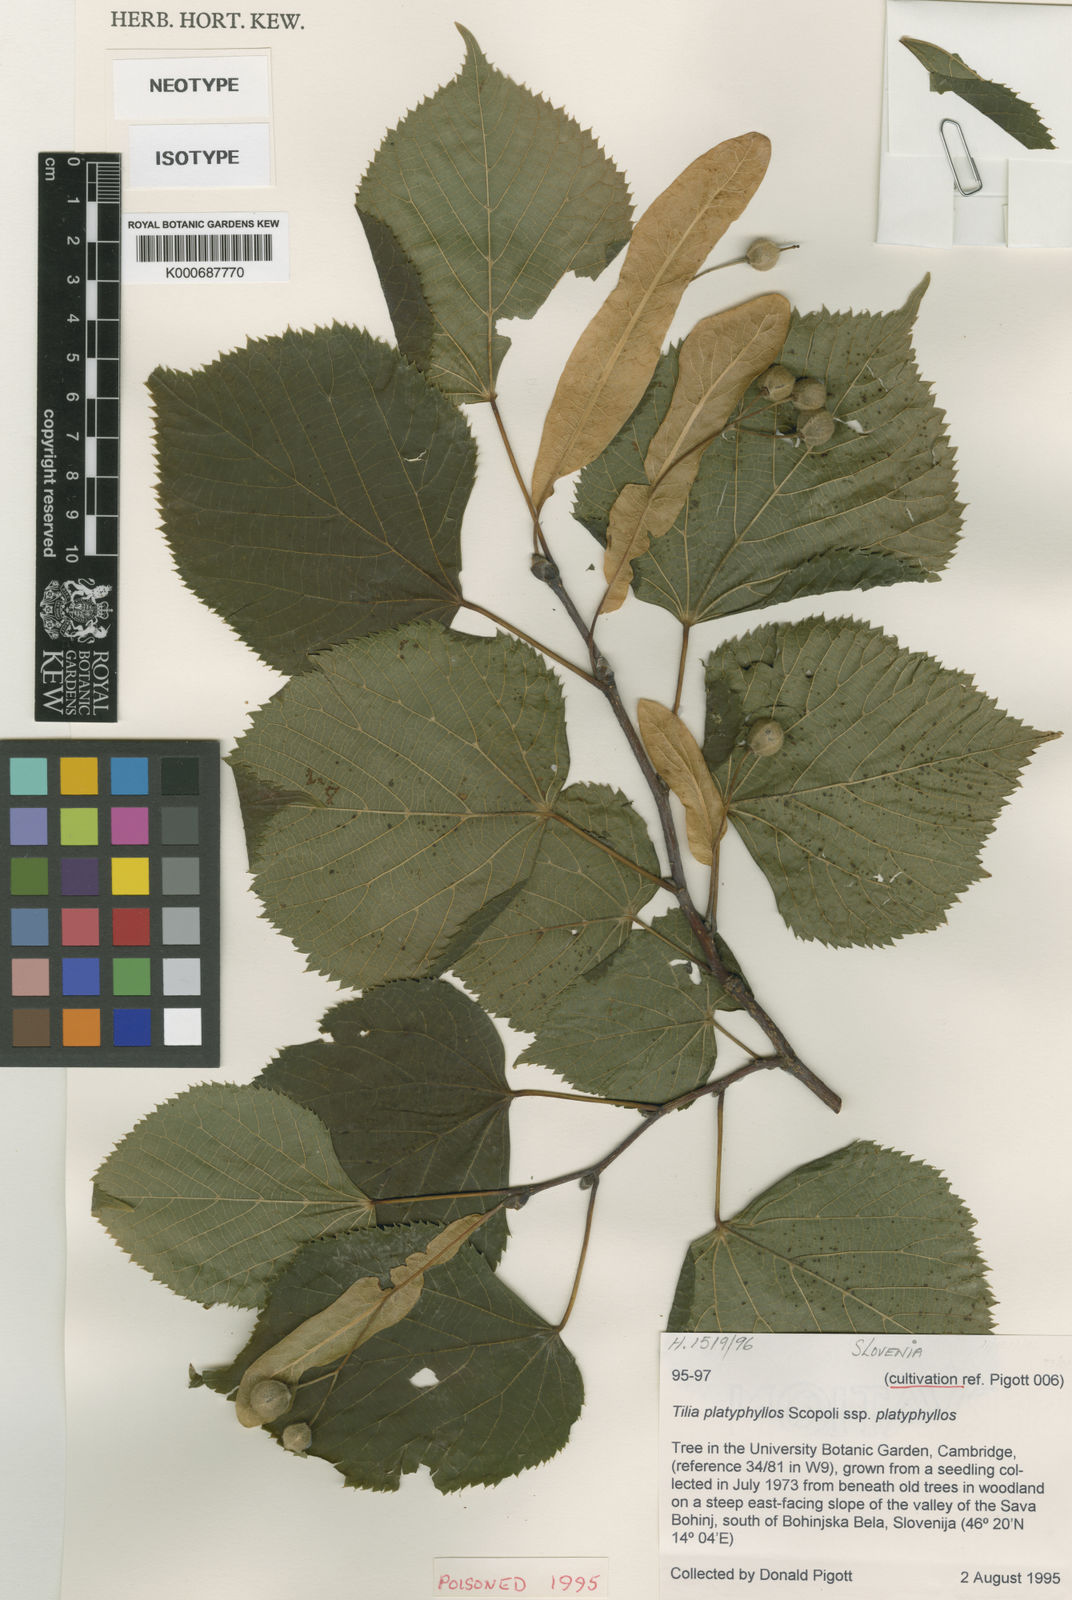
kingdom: Plantae
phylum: Tracheophyta
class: Magnoliopsida
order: Malvales
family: Malvaceae
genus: Tilia
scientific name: Tilia platyphyllos
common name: Large-leaved lime
